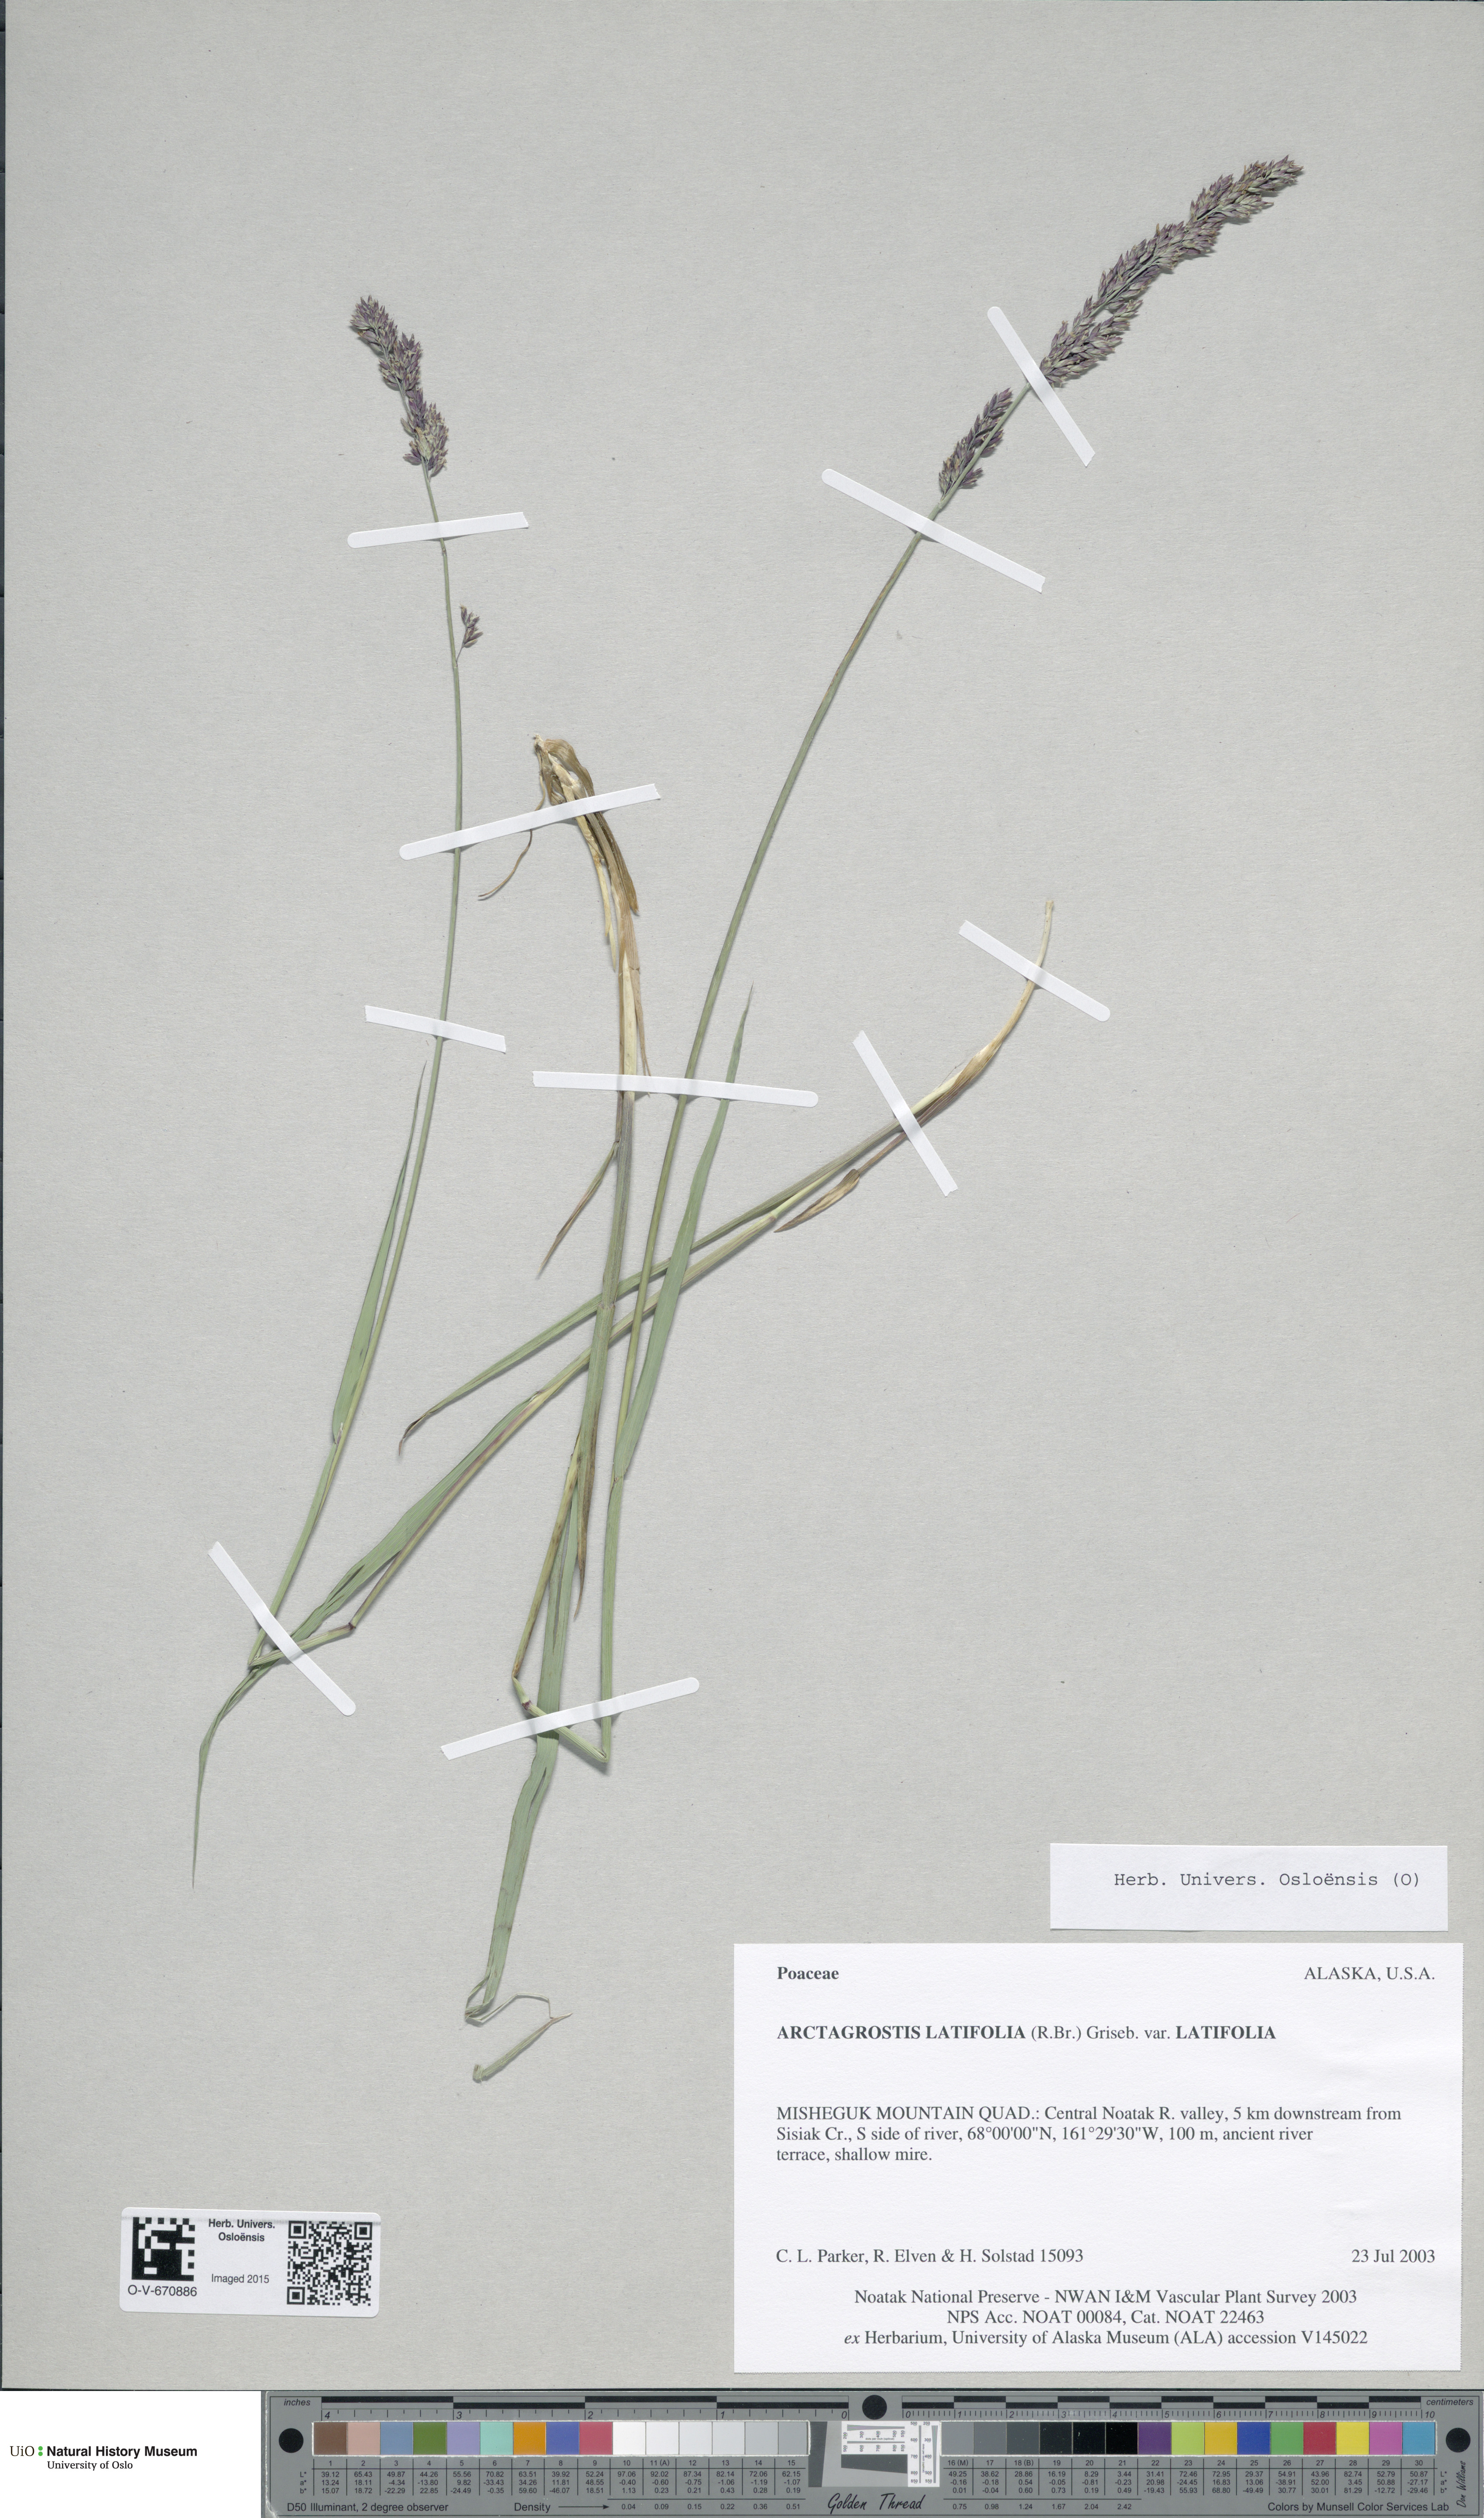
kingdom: Plantae
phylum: Tracheophyta
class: Liliopsida
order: Poales
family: Poaceae
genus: Arctagrostis
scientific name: Arctagrostis latifolia
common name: Arctic grass
